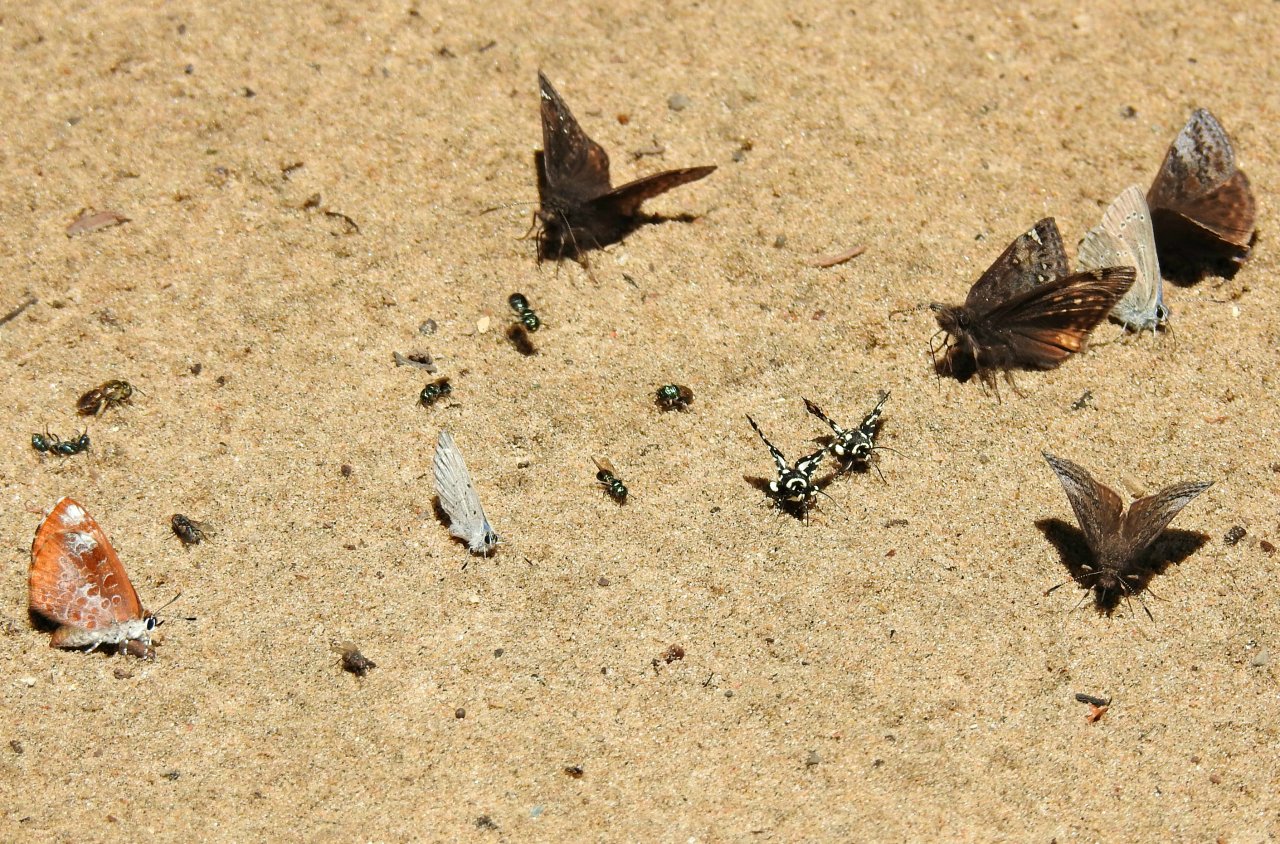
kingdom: Animalia
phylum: Arthropoda
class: Insecta
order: Lepidoptera
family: Hesperiidae
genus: Erynnis
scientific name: Erynnis icelus
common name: Dreamy Duskywing
